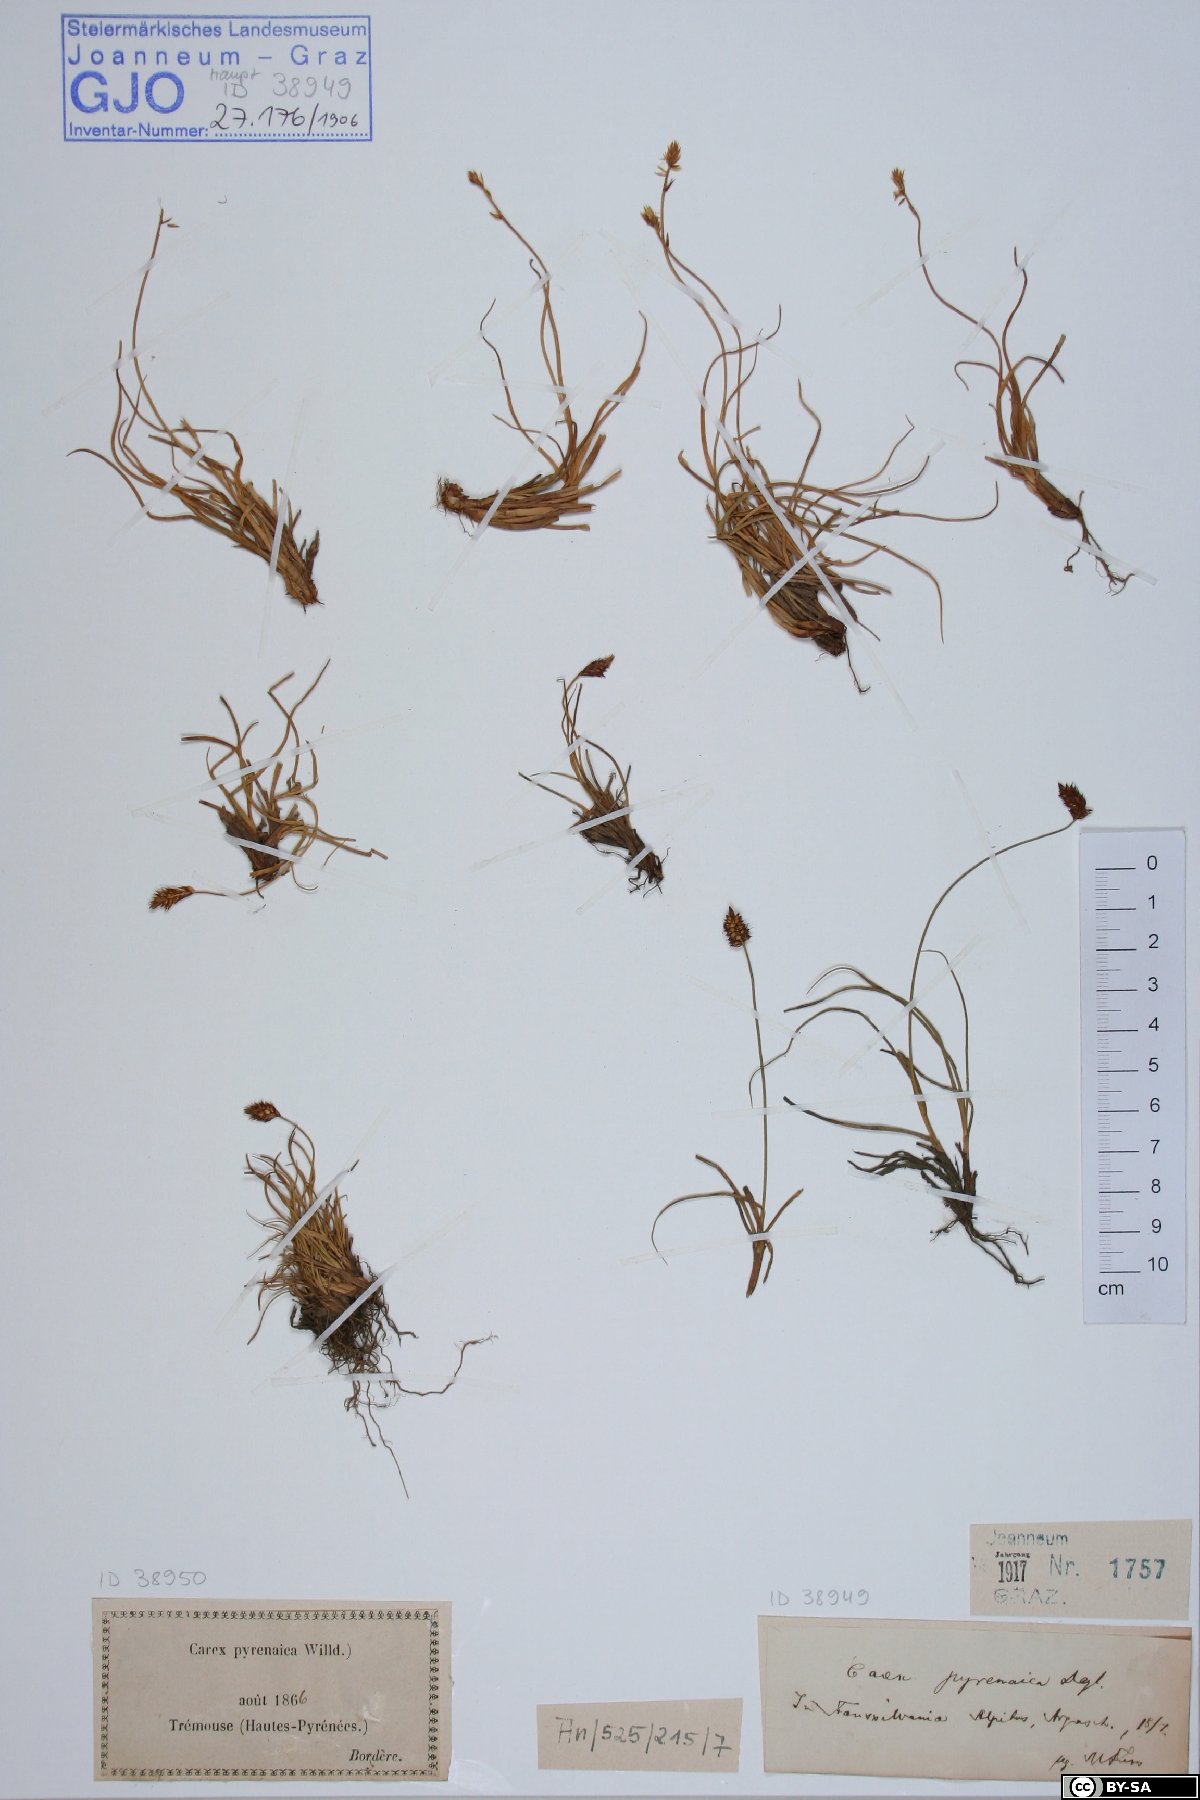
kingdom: Plantae
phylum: Bryophyta
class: Bryopsida
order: Grimmiales
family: Grimmiaceae
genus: Racomitrium
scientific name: Racomitrium lanuginosum
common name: Hoary rock moss
